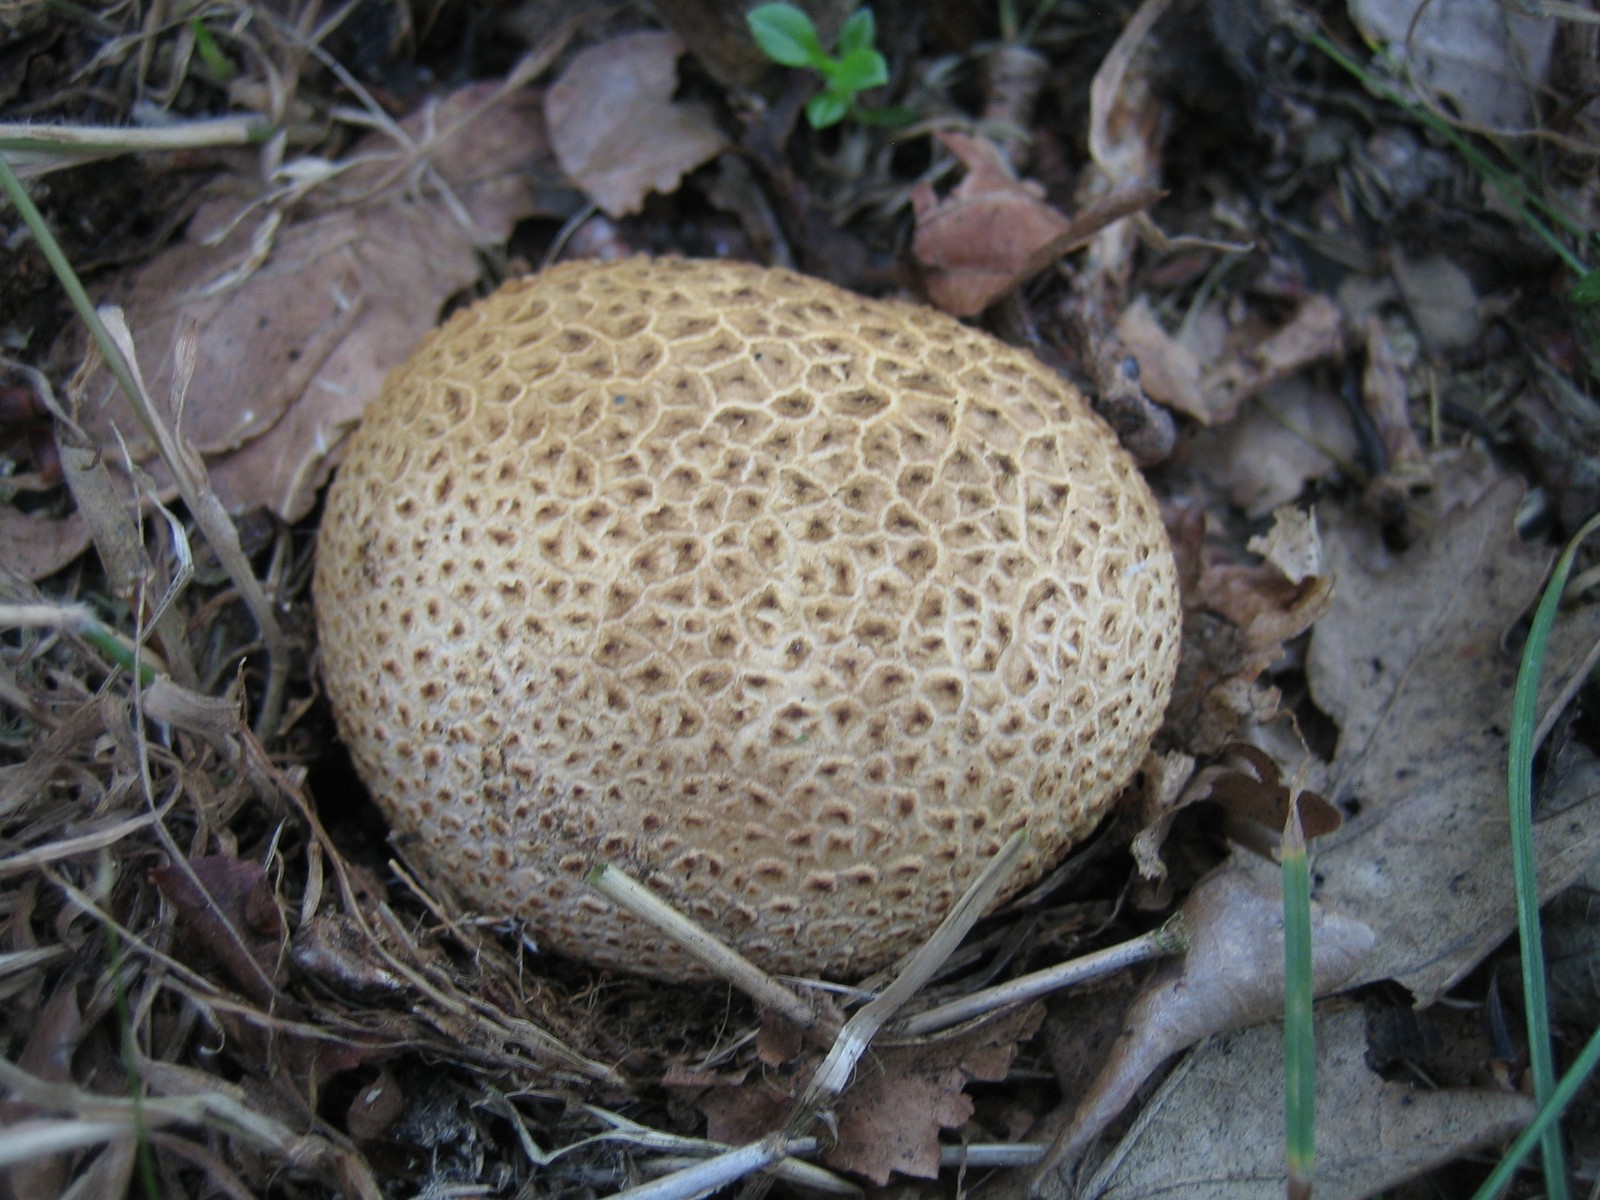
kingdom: Fungi
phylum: Basidiomycota
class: Agaricomycetes
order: Boletales
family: Sclerodermataceae
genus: Scleroderma
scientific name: Scleroderma citrinum
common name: almindelig bruskbold
